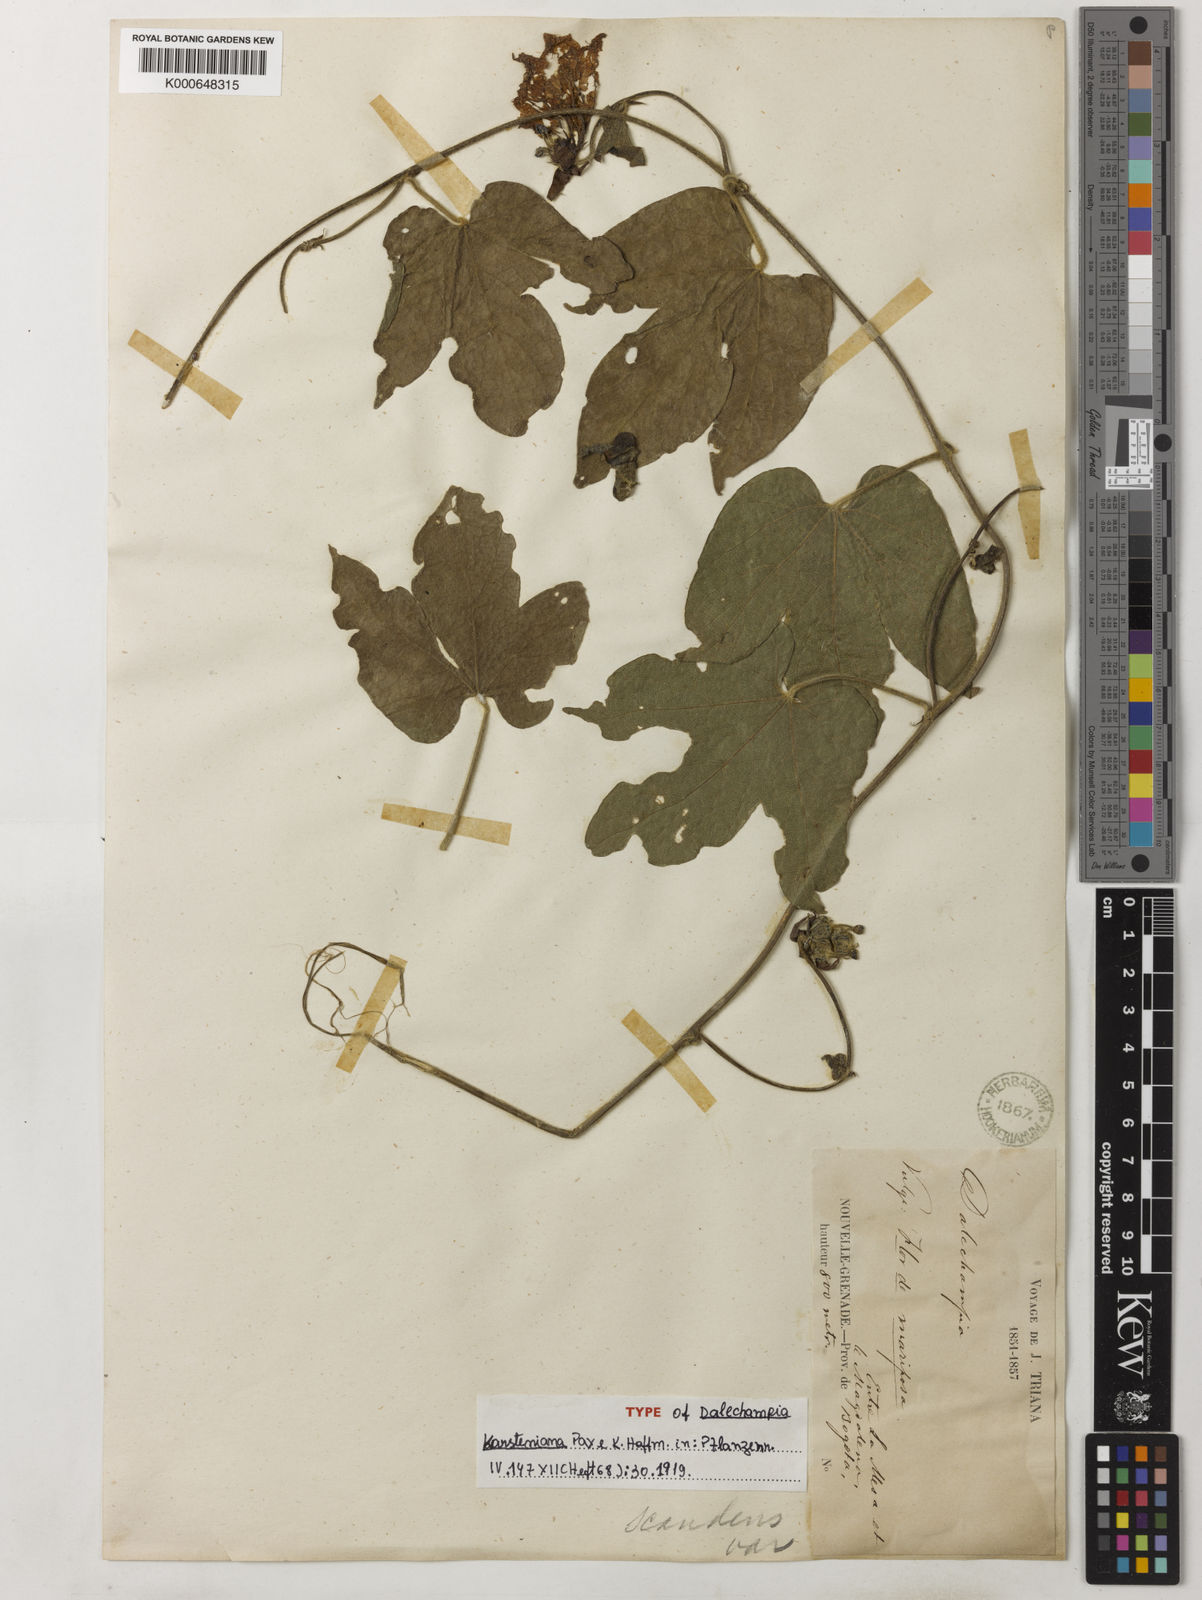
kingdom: Plantae
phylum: Tracheophyta
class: Magnoliopsida
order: Malpighiales
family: Euphorbiaceae
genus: Dalechampia
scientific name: Dalechampia colorata
